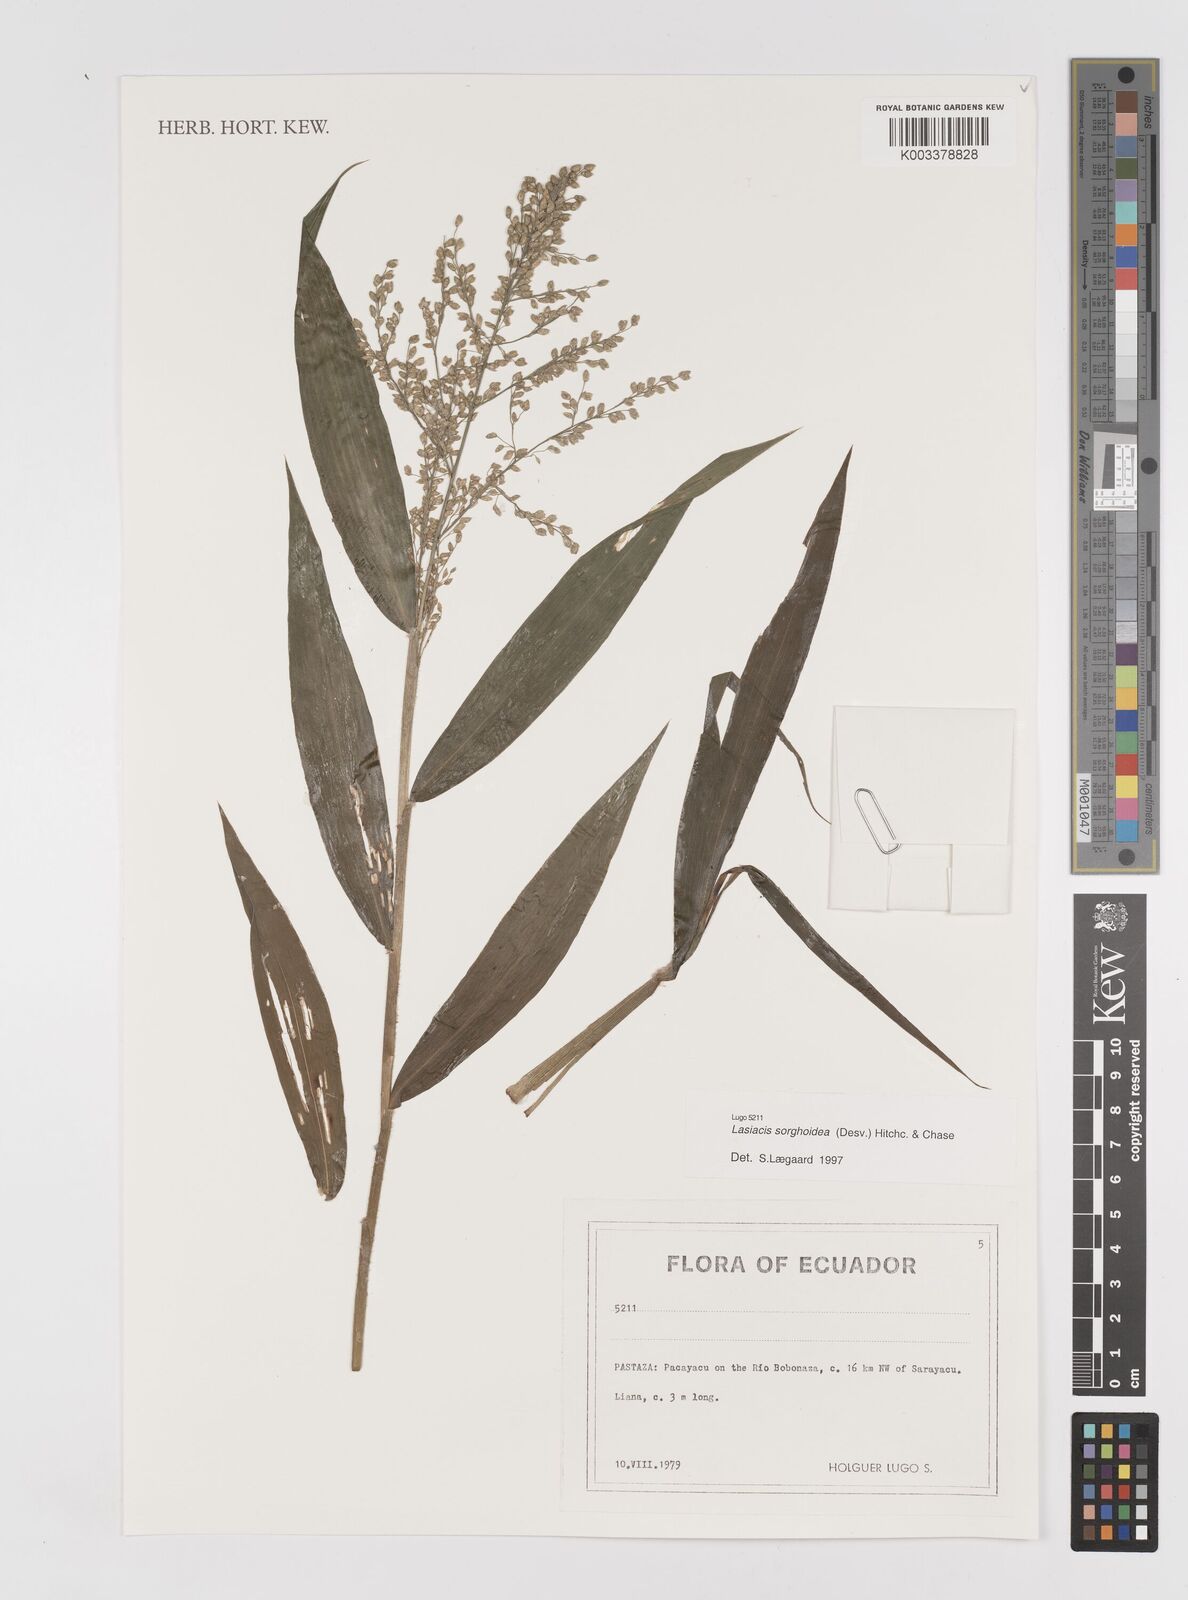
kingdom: Plantae
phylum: Tracheophyta
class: Liliopsida
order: Poales
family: Poaceae
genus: Lasiacis
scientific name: Lasiacis maculata
